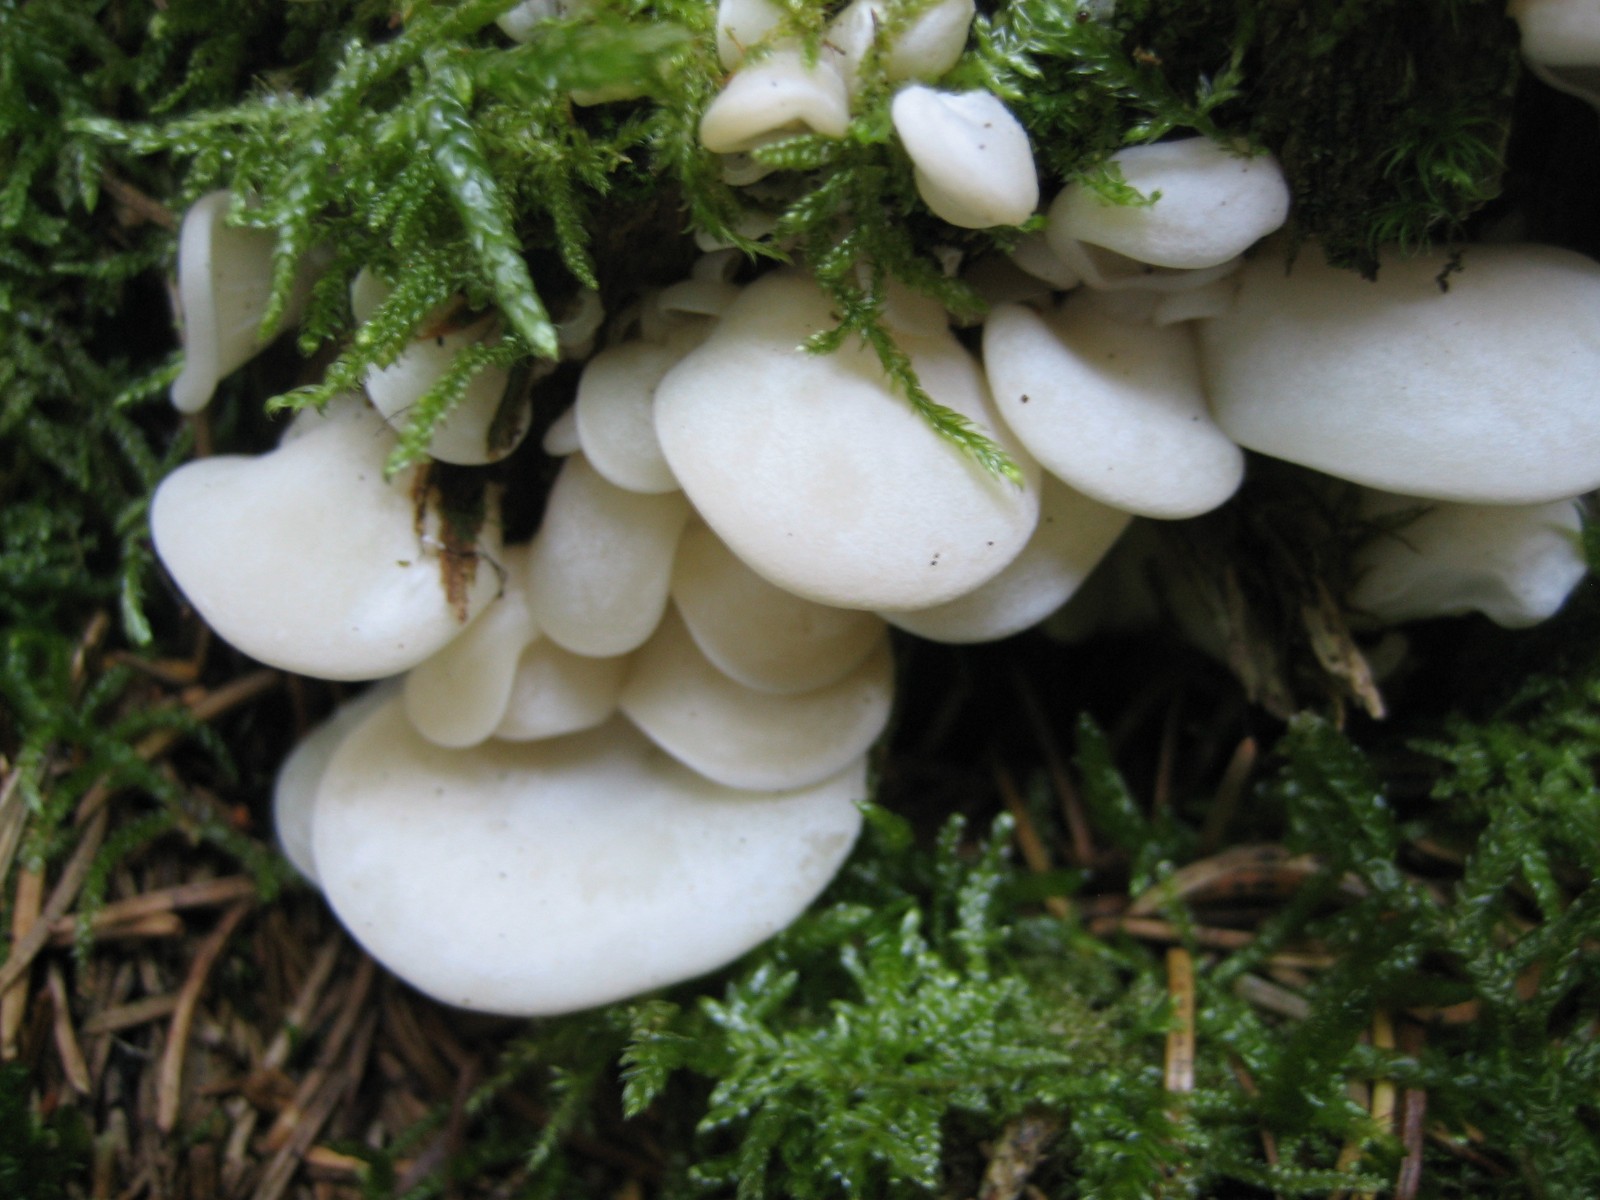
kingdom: Fungi
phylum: Basidiomycota
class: Agaricomycetes
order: Agaricales
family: Marasmiaceae
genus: Pleurocybella
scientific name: Pleurocybella porrigens
